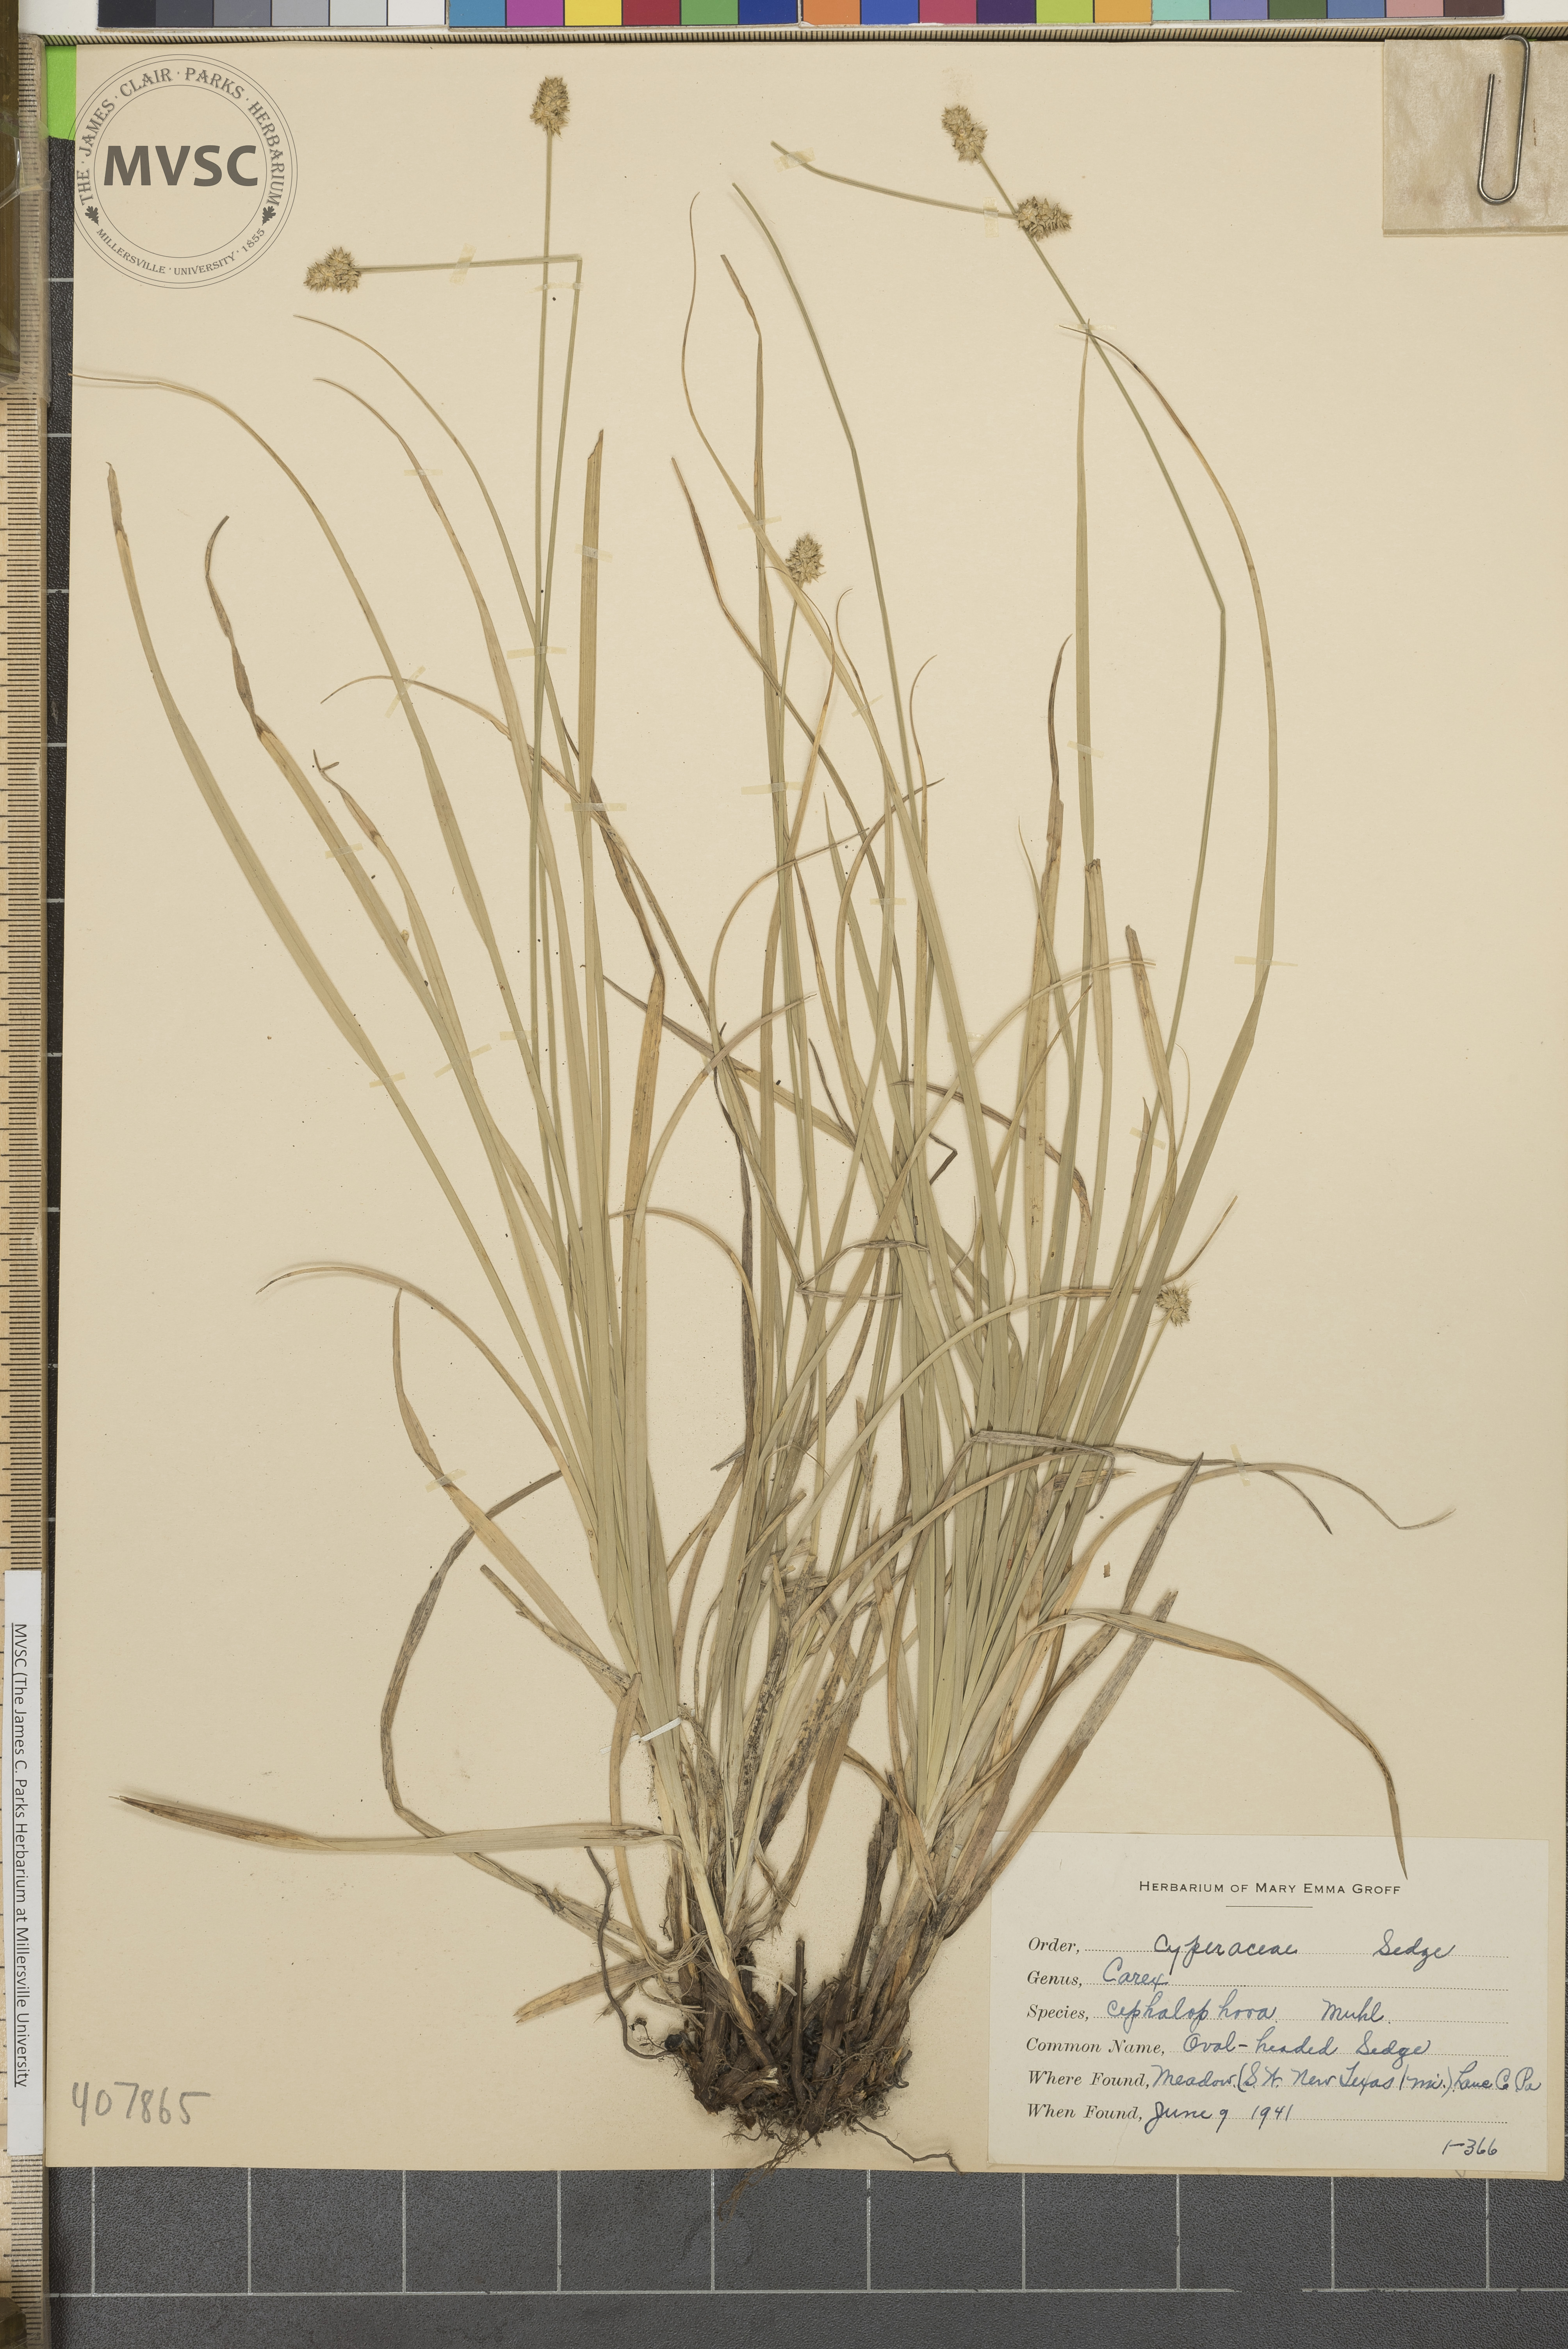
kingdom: Plantae
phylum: Tracheophyta
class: Liliopsida
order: Poales
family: Cyperaceae
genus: Carex
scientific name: Carex cephalophora
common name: Oval-headed Sedge
